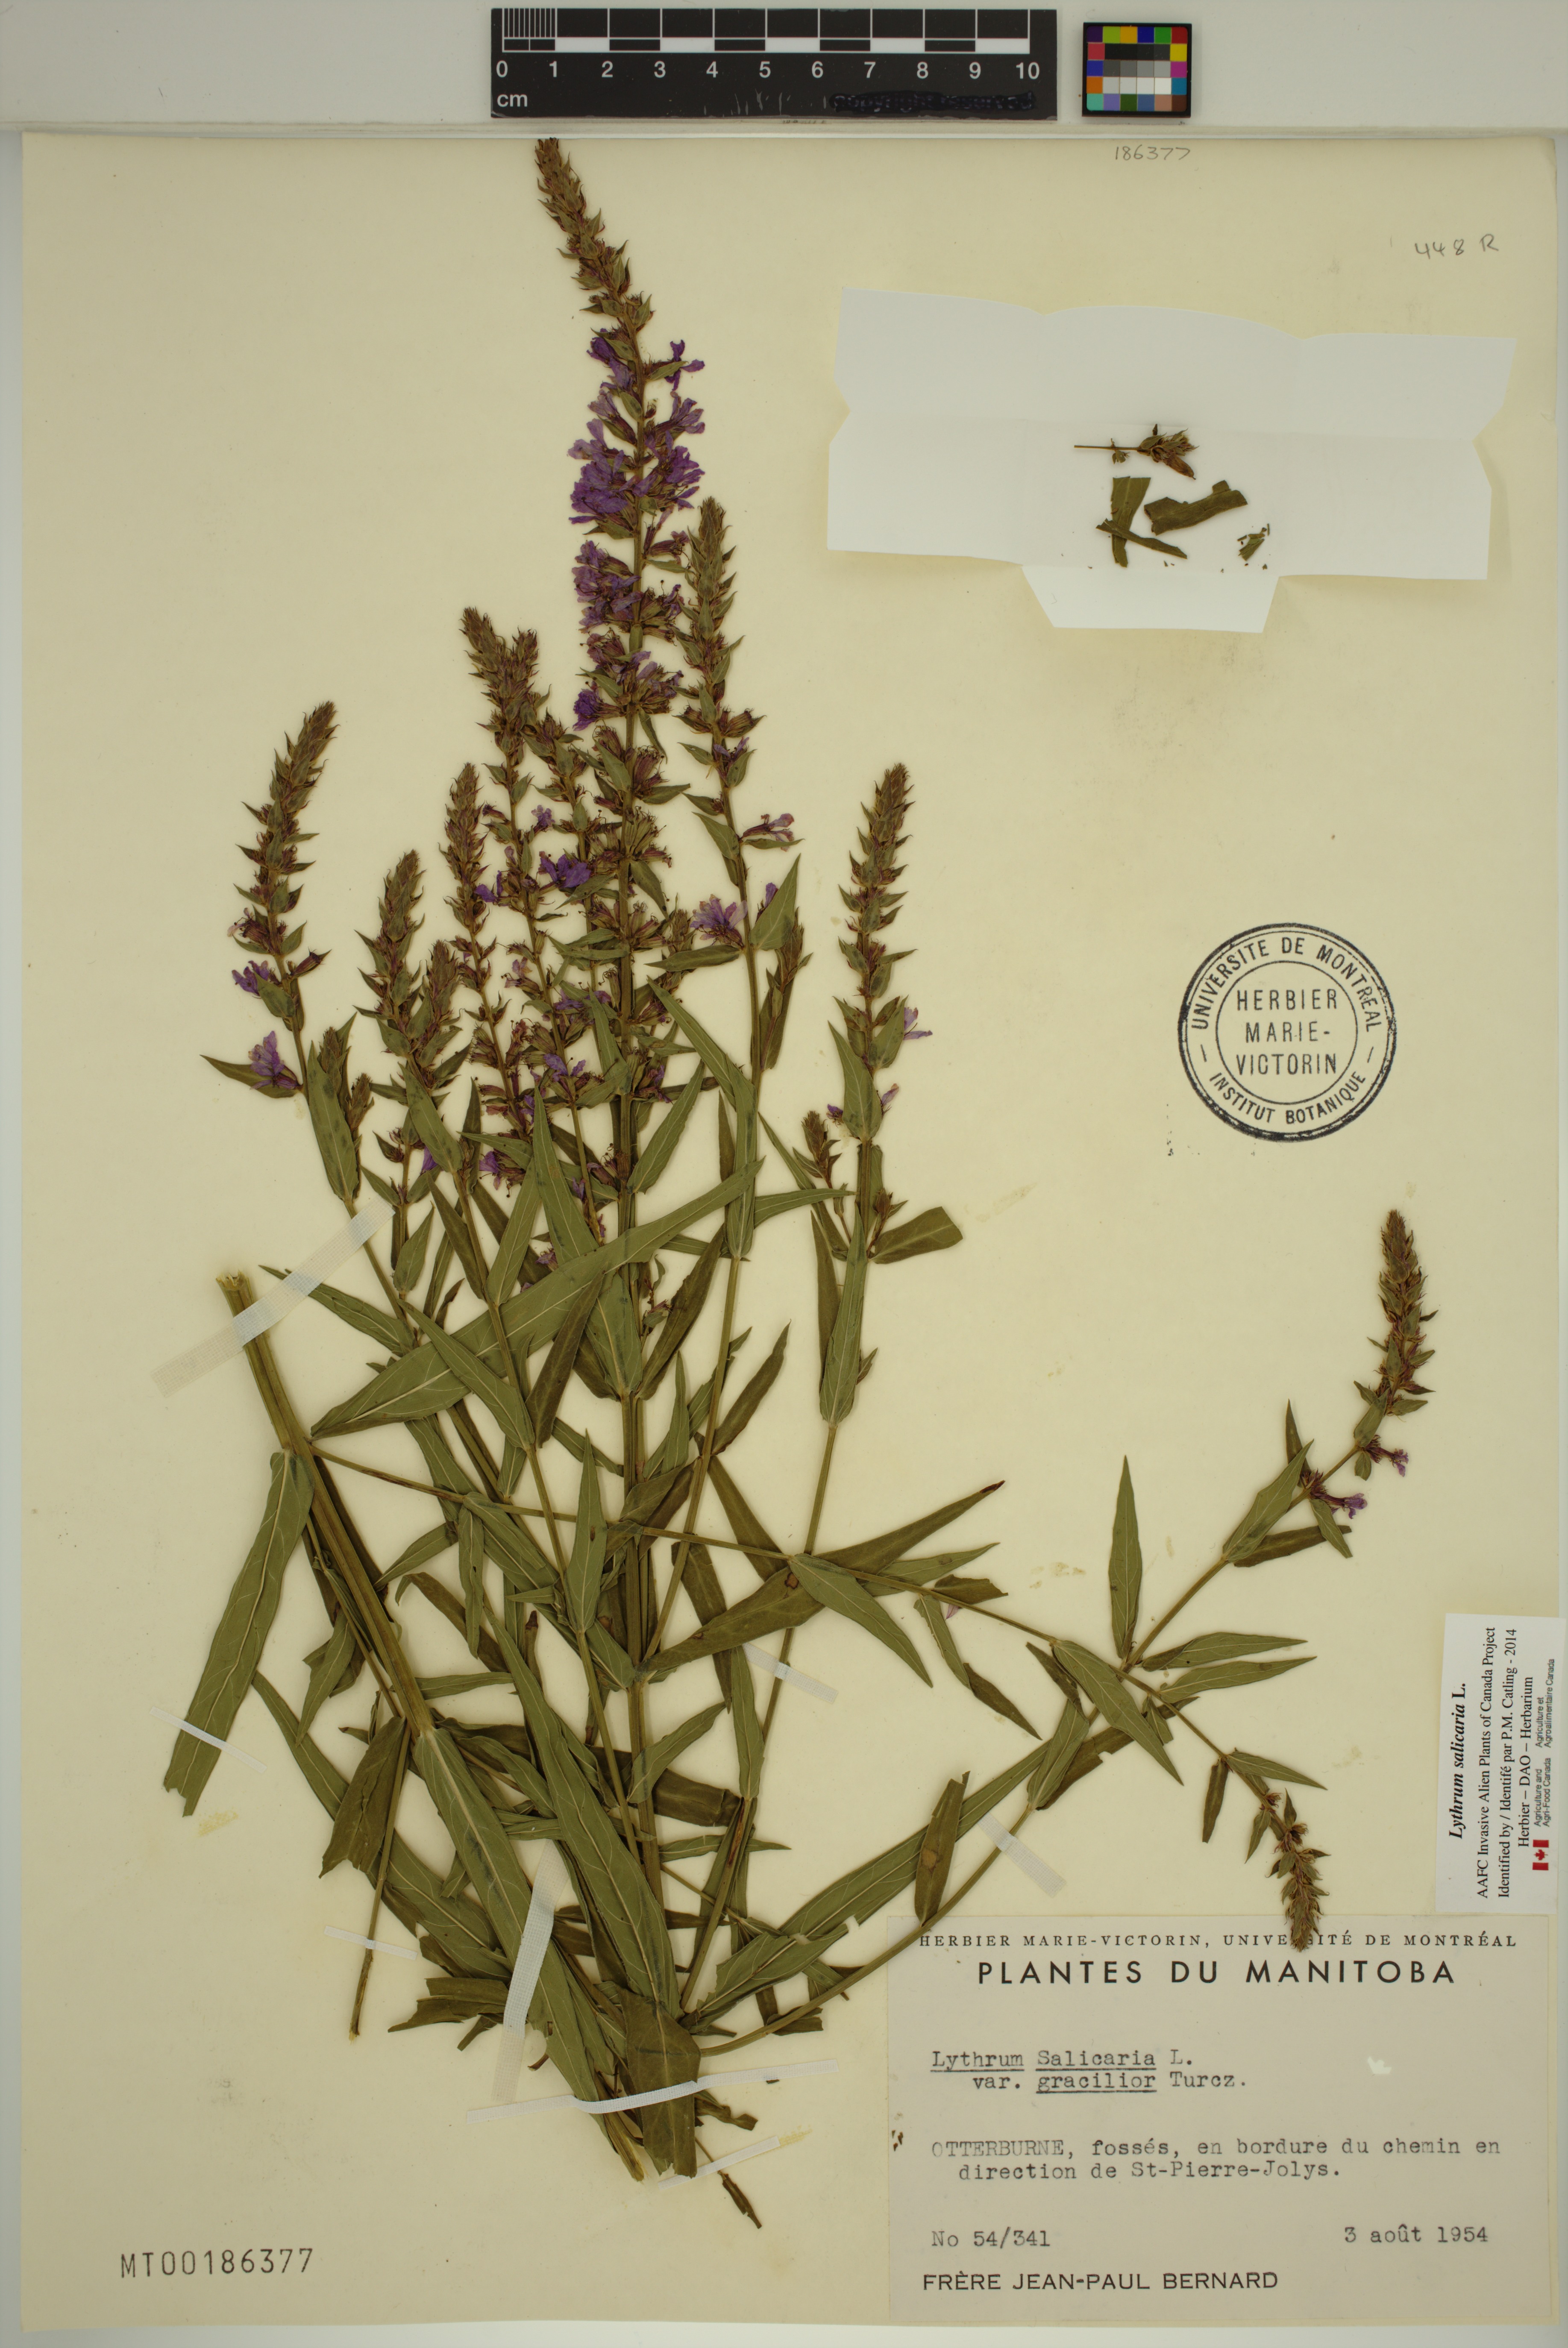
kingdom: Plantae
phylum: Tracheophyta
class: Magnoliopsida
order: Myrtales
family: Lythraceae
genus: Lythrum
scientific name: Lythrum salicaria
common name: Purple loosestrife
